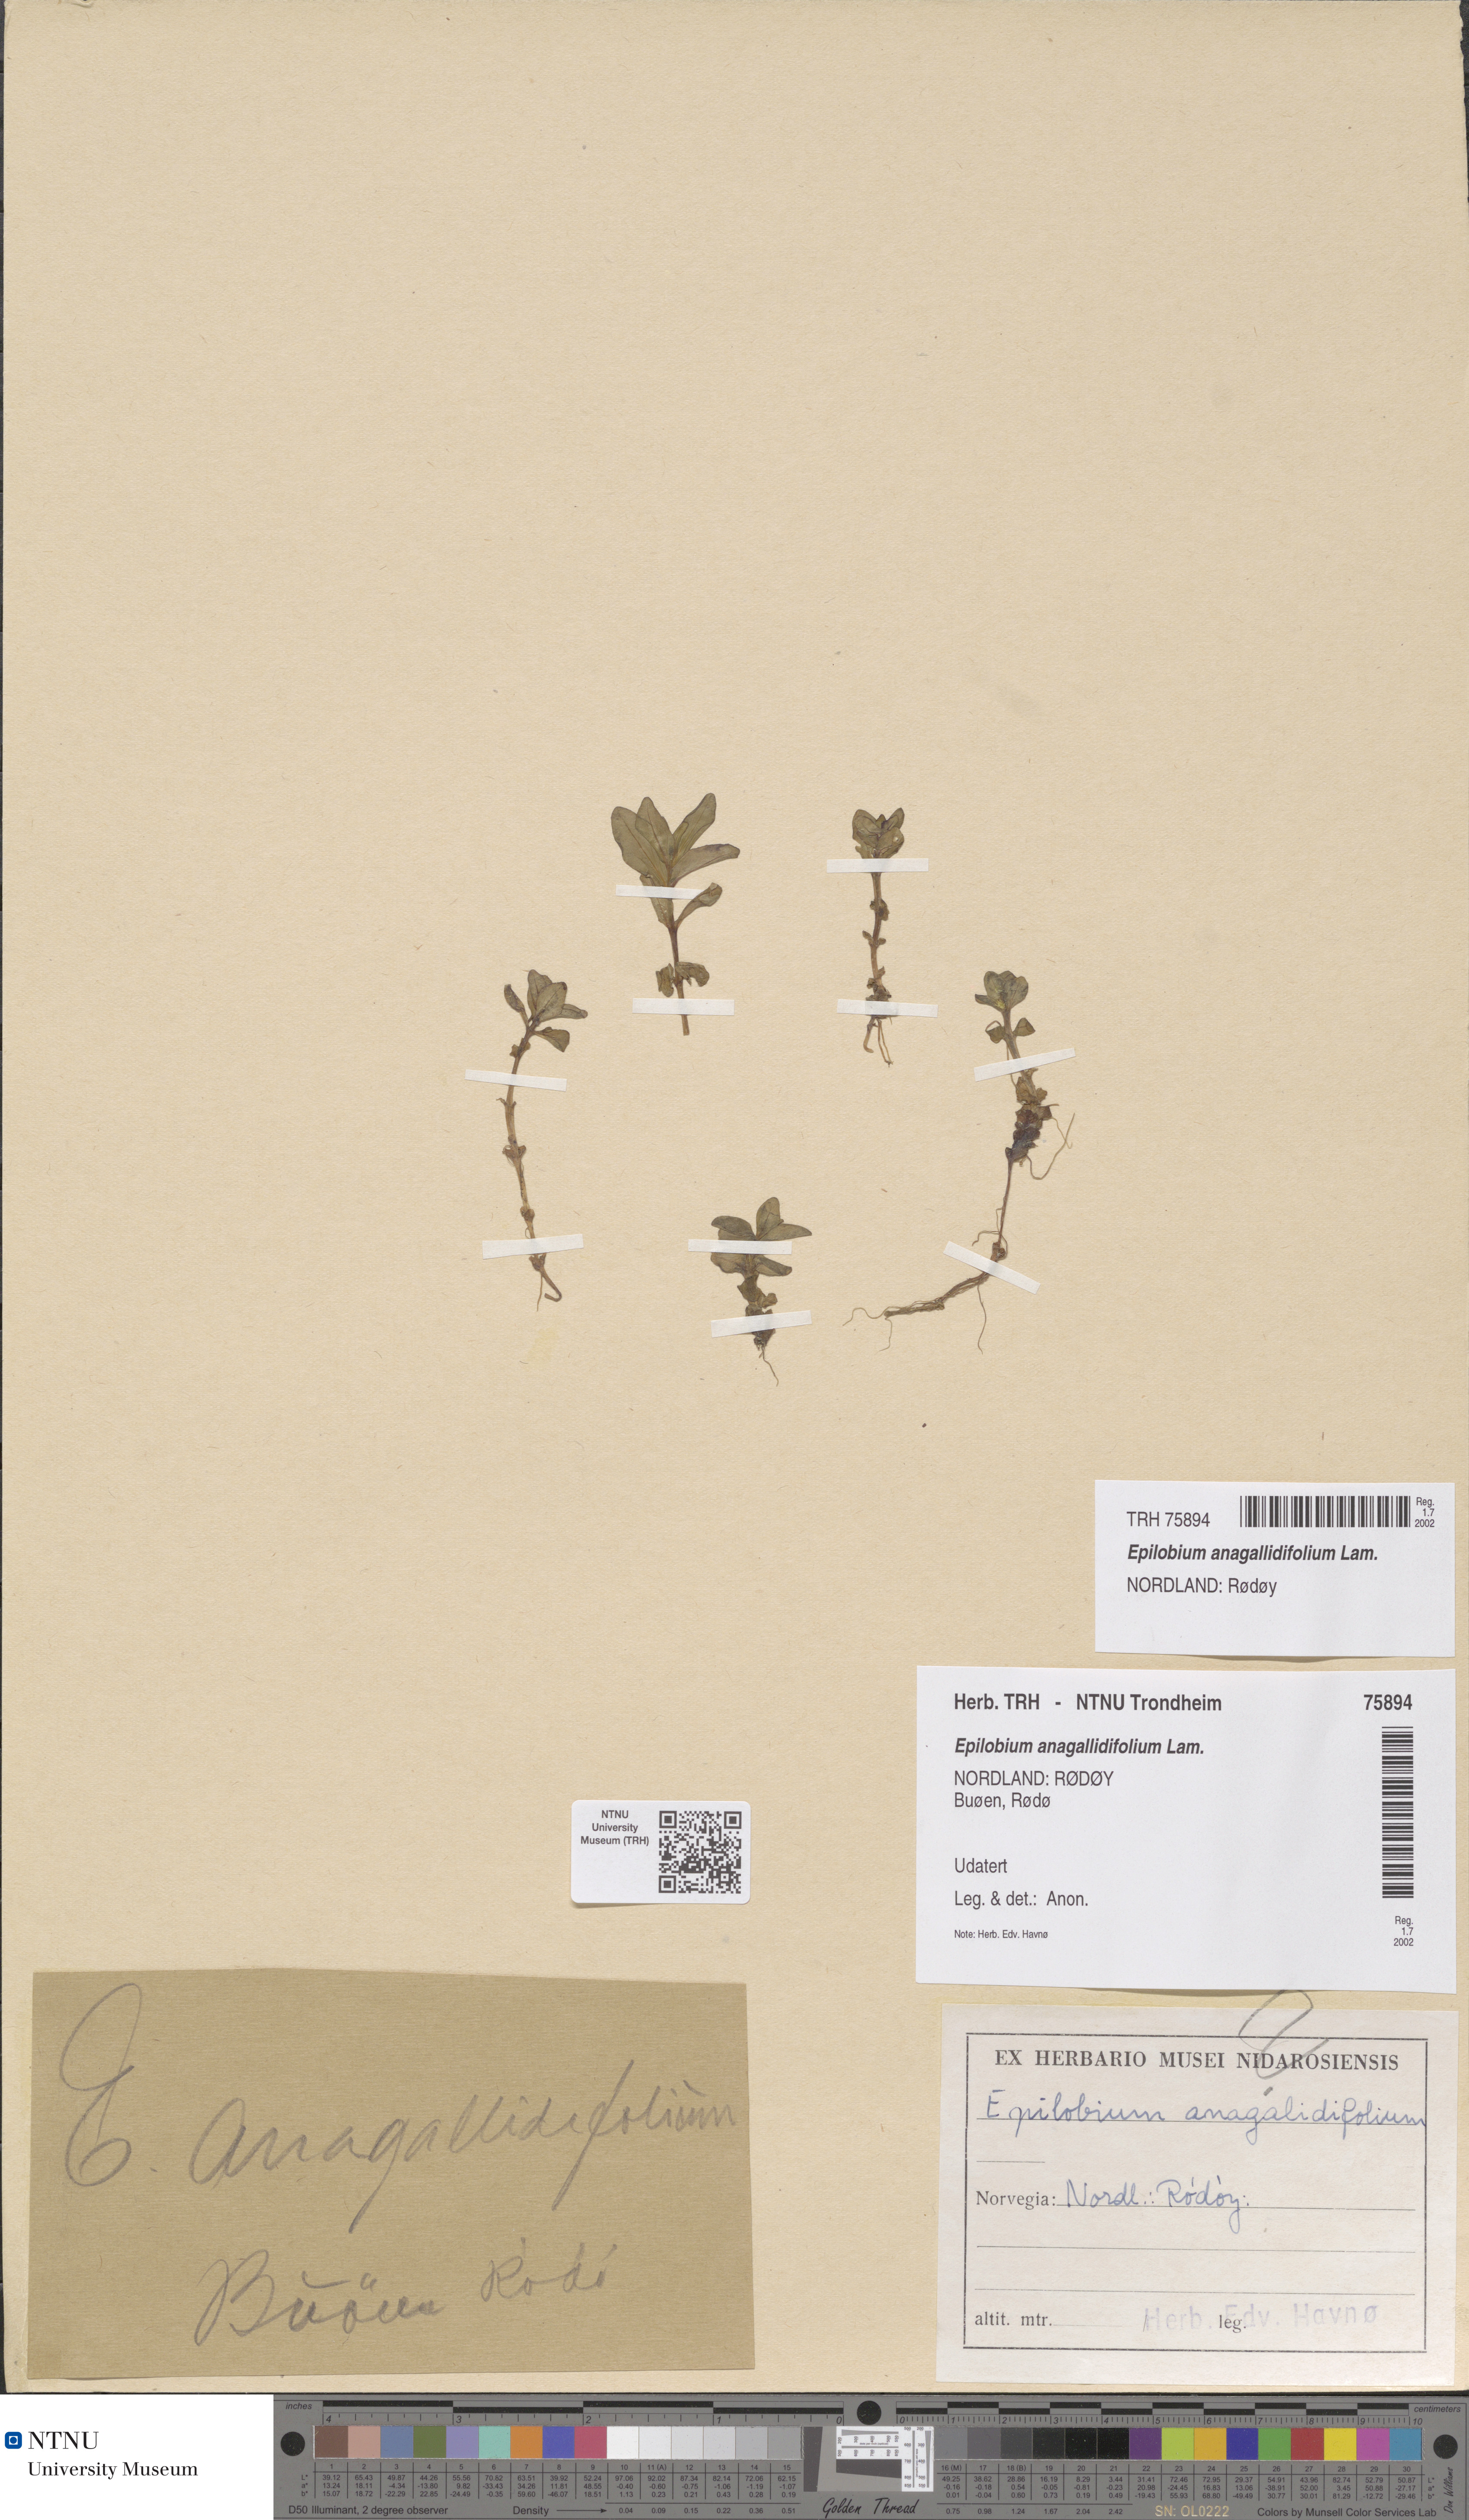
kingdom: Plantae
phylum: Tracheophyta
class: Magnoliopsida
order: Myrtales
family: Onagraceae
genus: Epilobium
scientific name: Epilobium anagallidifolium
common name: Alpine willowherb
